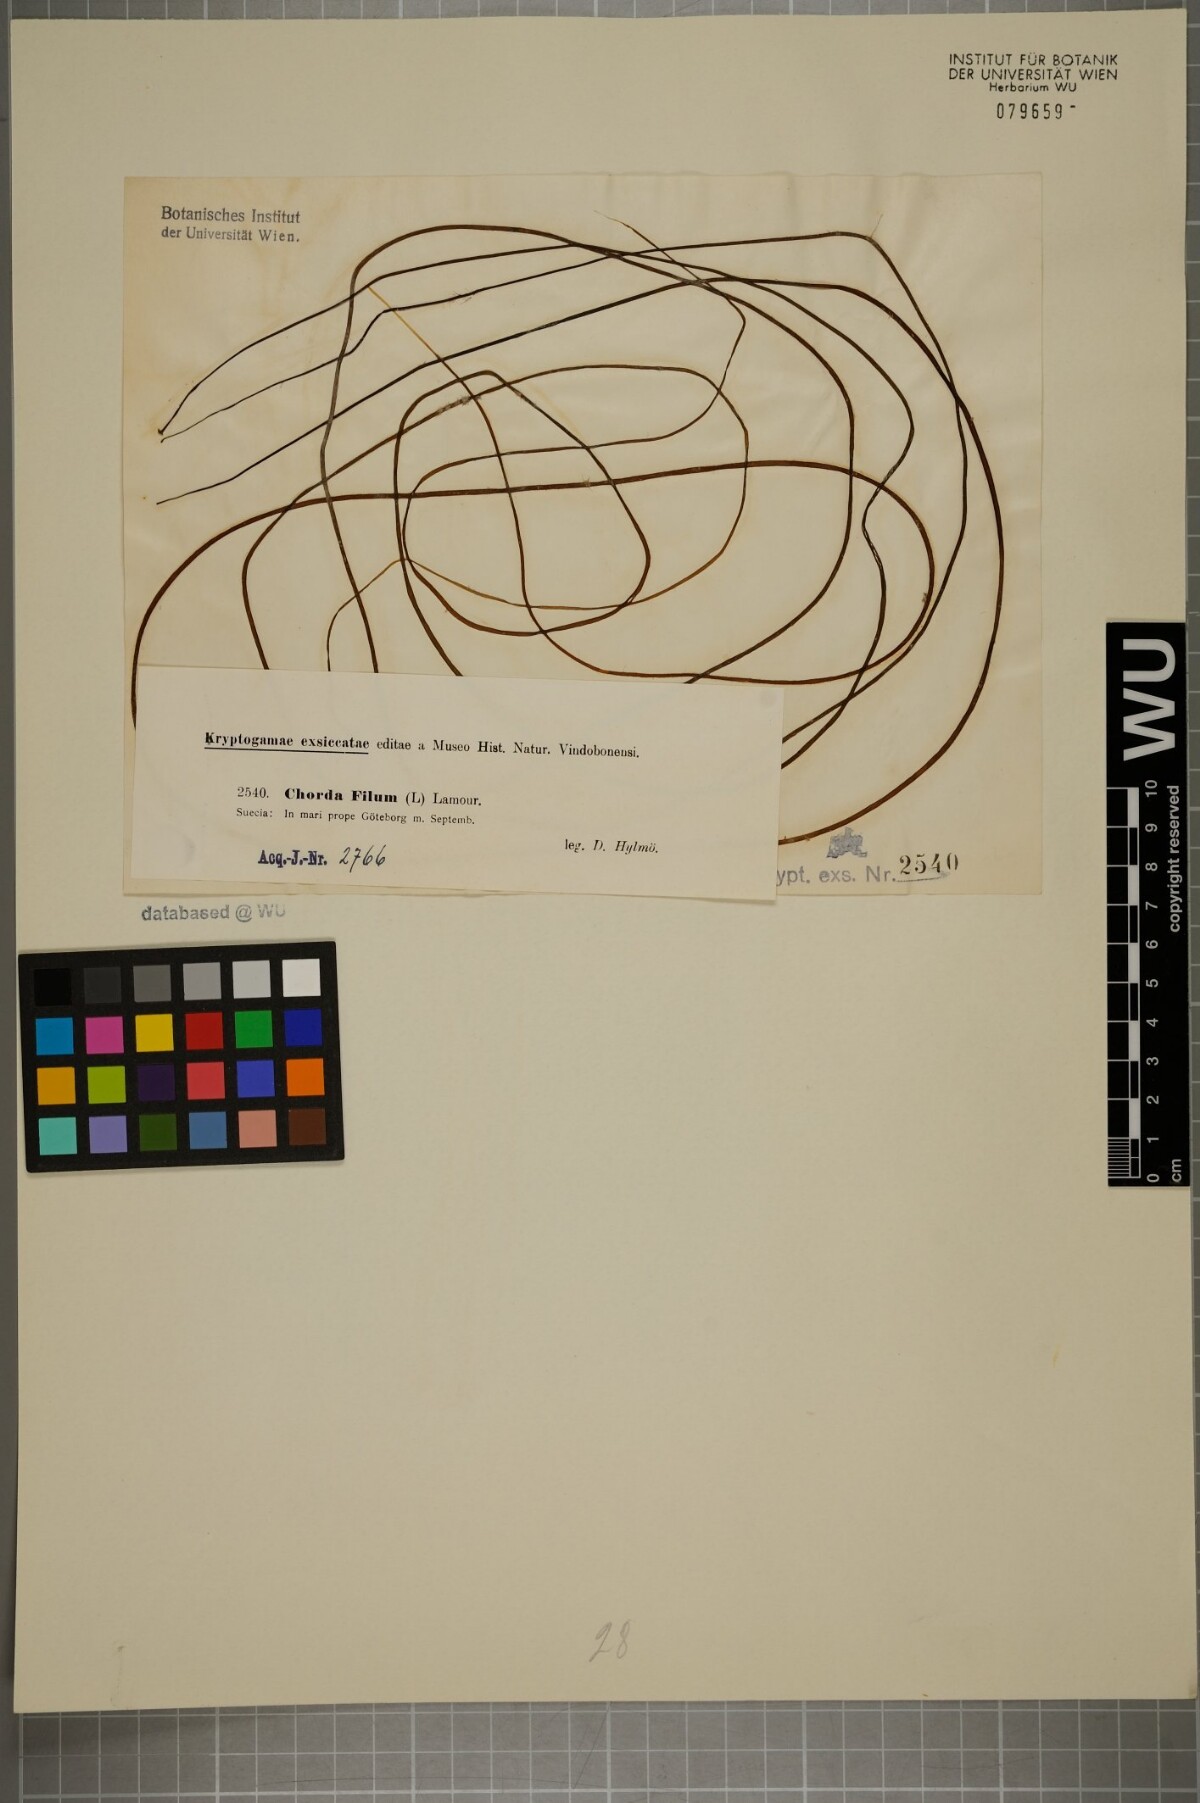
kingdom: Chromista
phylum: Ochrophyta
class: Phaeophyceae
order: Laminariales
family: Chordaceae
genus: Chorda
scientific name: Chorda filum
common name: Mermaid's tresses
